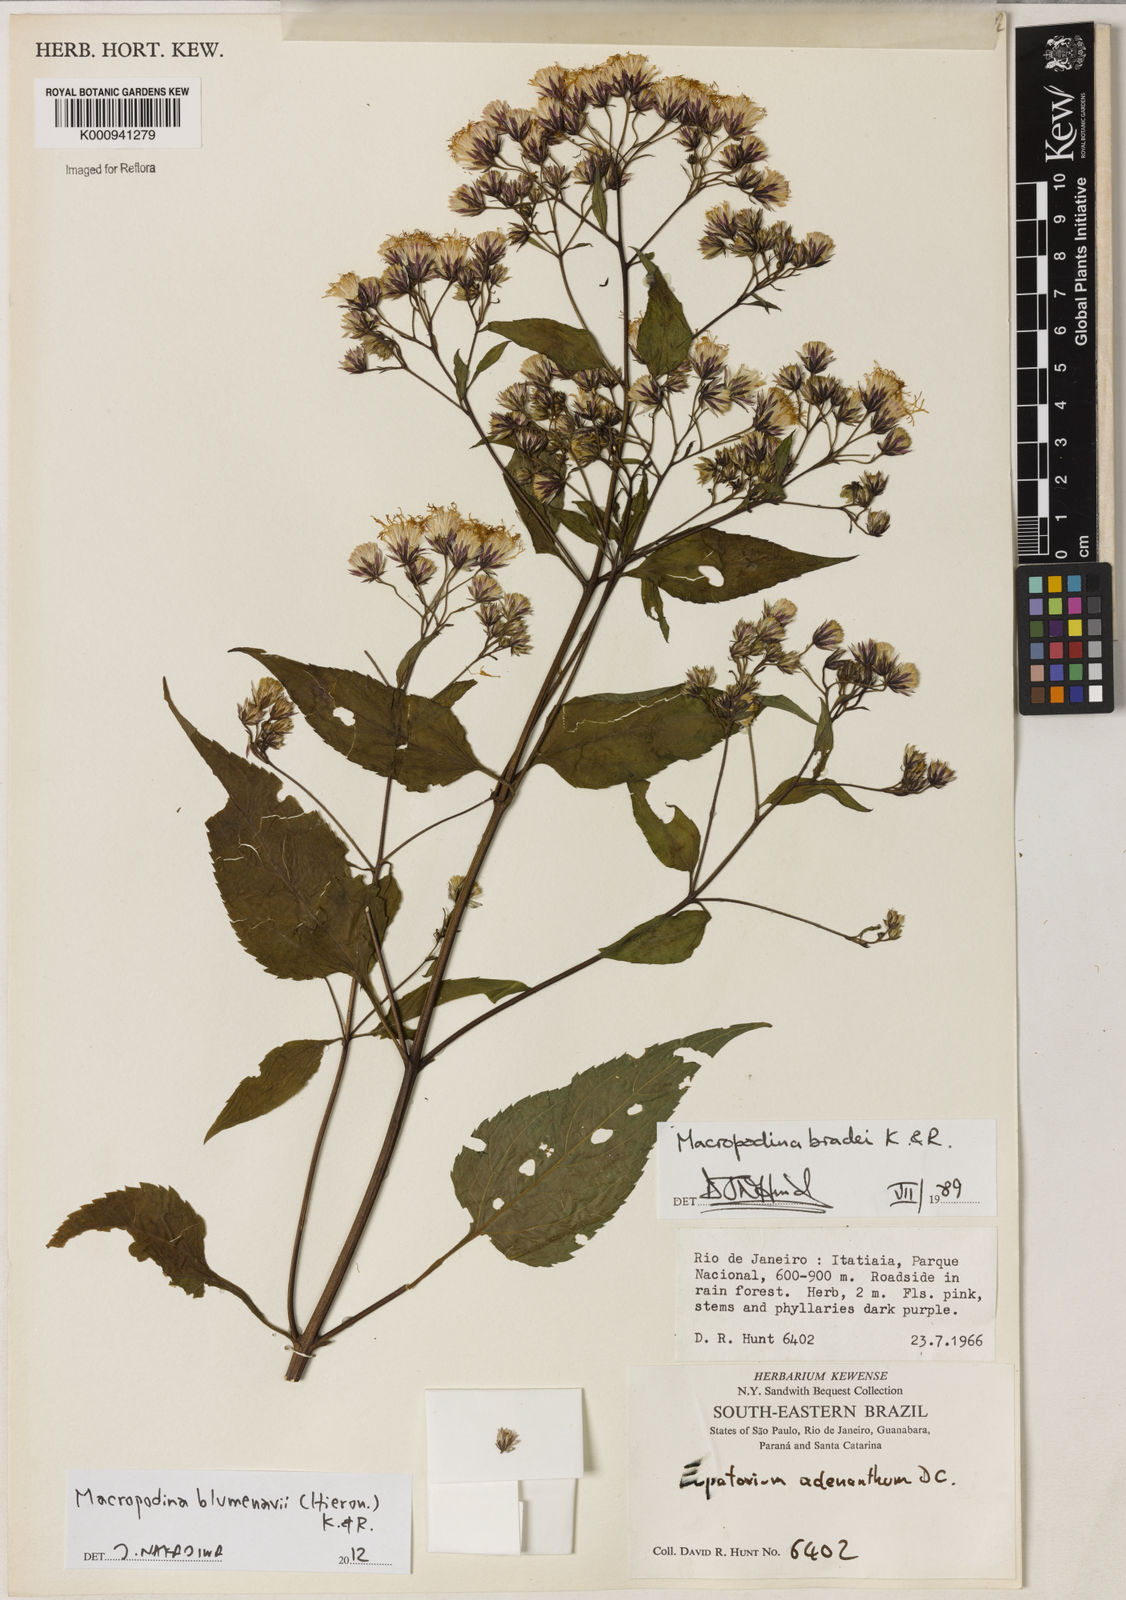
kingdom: Plantae
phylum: Tracheophyta
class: Magnoliopsida
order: Asterales
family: Asteraceae
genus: Macropodina
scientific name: Macropodina bradei
